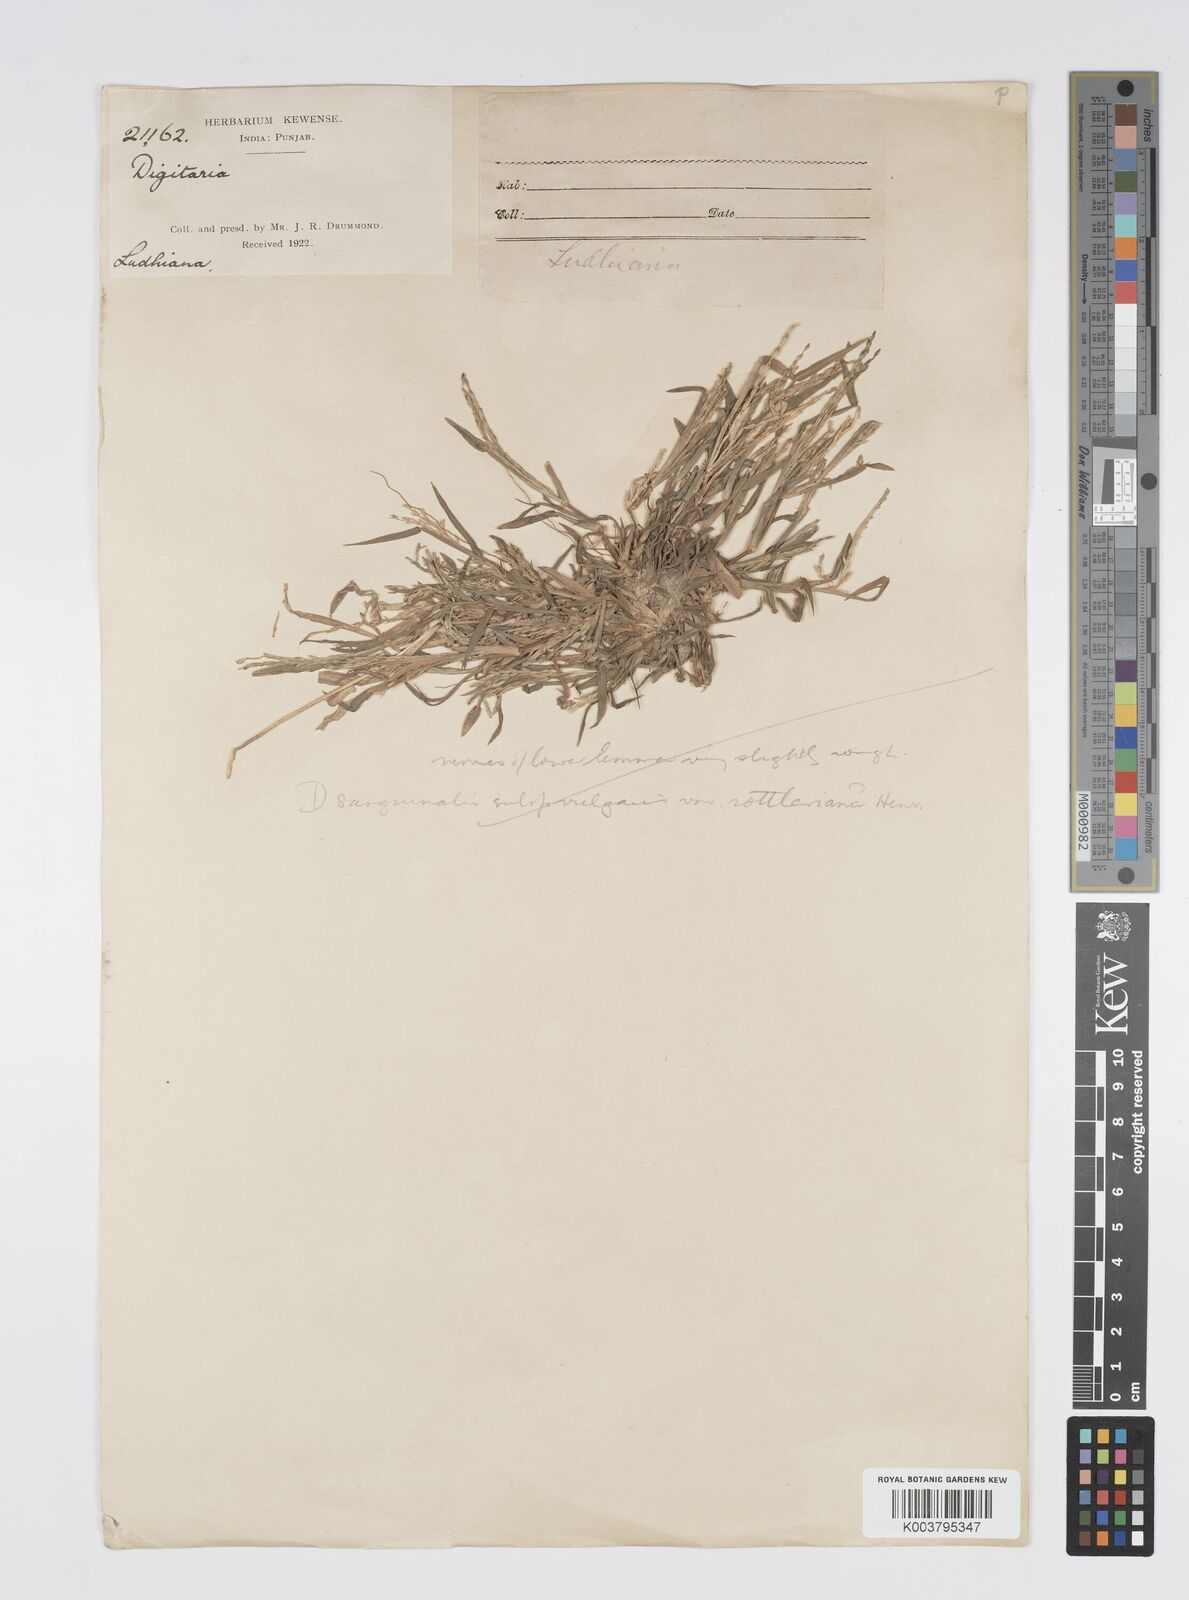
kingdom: Plantae
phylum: Tracheophyta
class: Liliopsida
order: Poales
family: Poaceae
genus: Digitaria
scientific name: Digitaria ciliaris
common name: Tropical finger-grass
